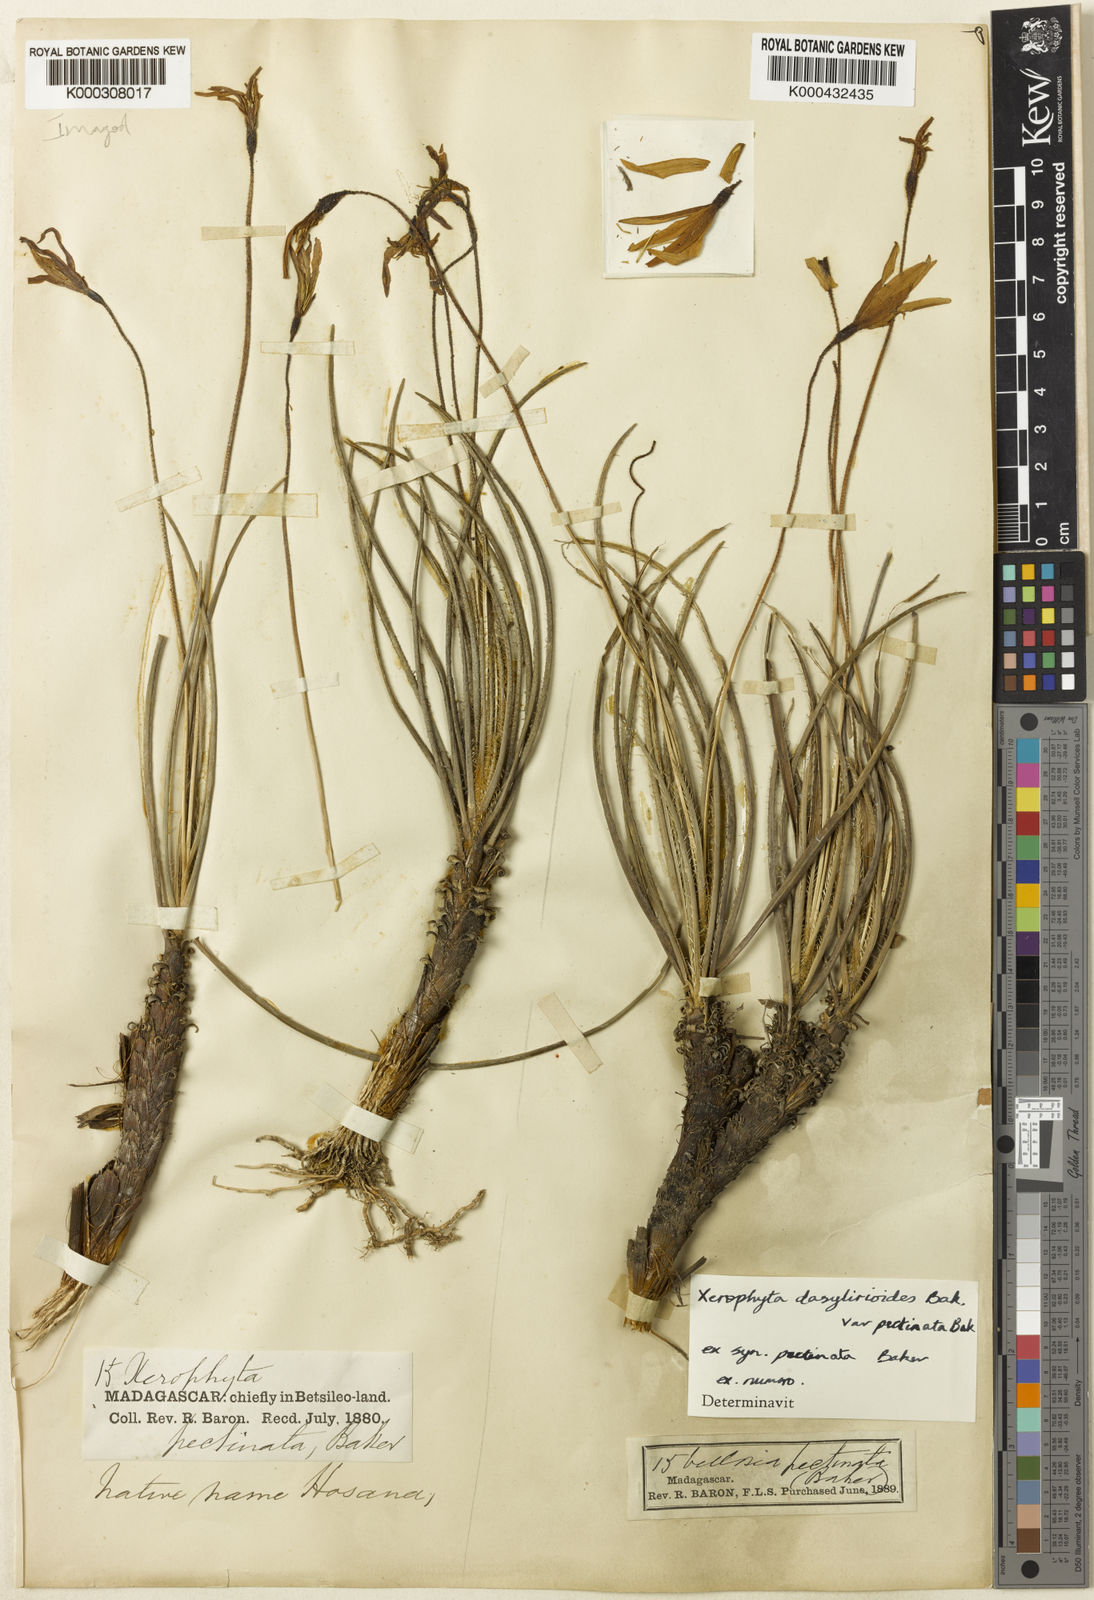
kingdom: Plantae
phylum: Tracheophyta
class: Liliopsida
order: Pandanales
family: Velloziaceae
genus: Xerophyta
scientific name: Xerophyta pectinata
